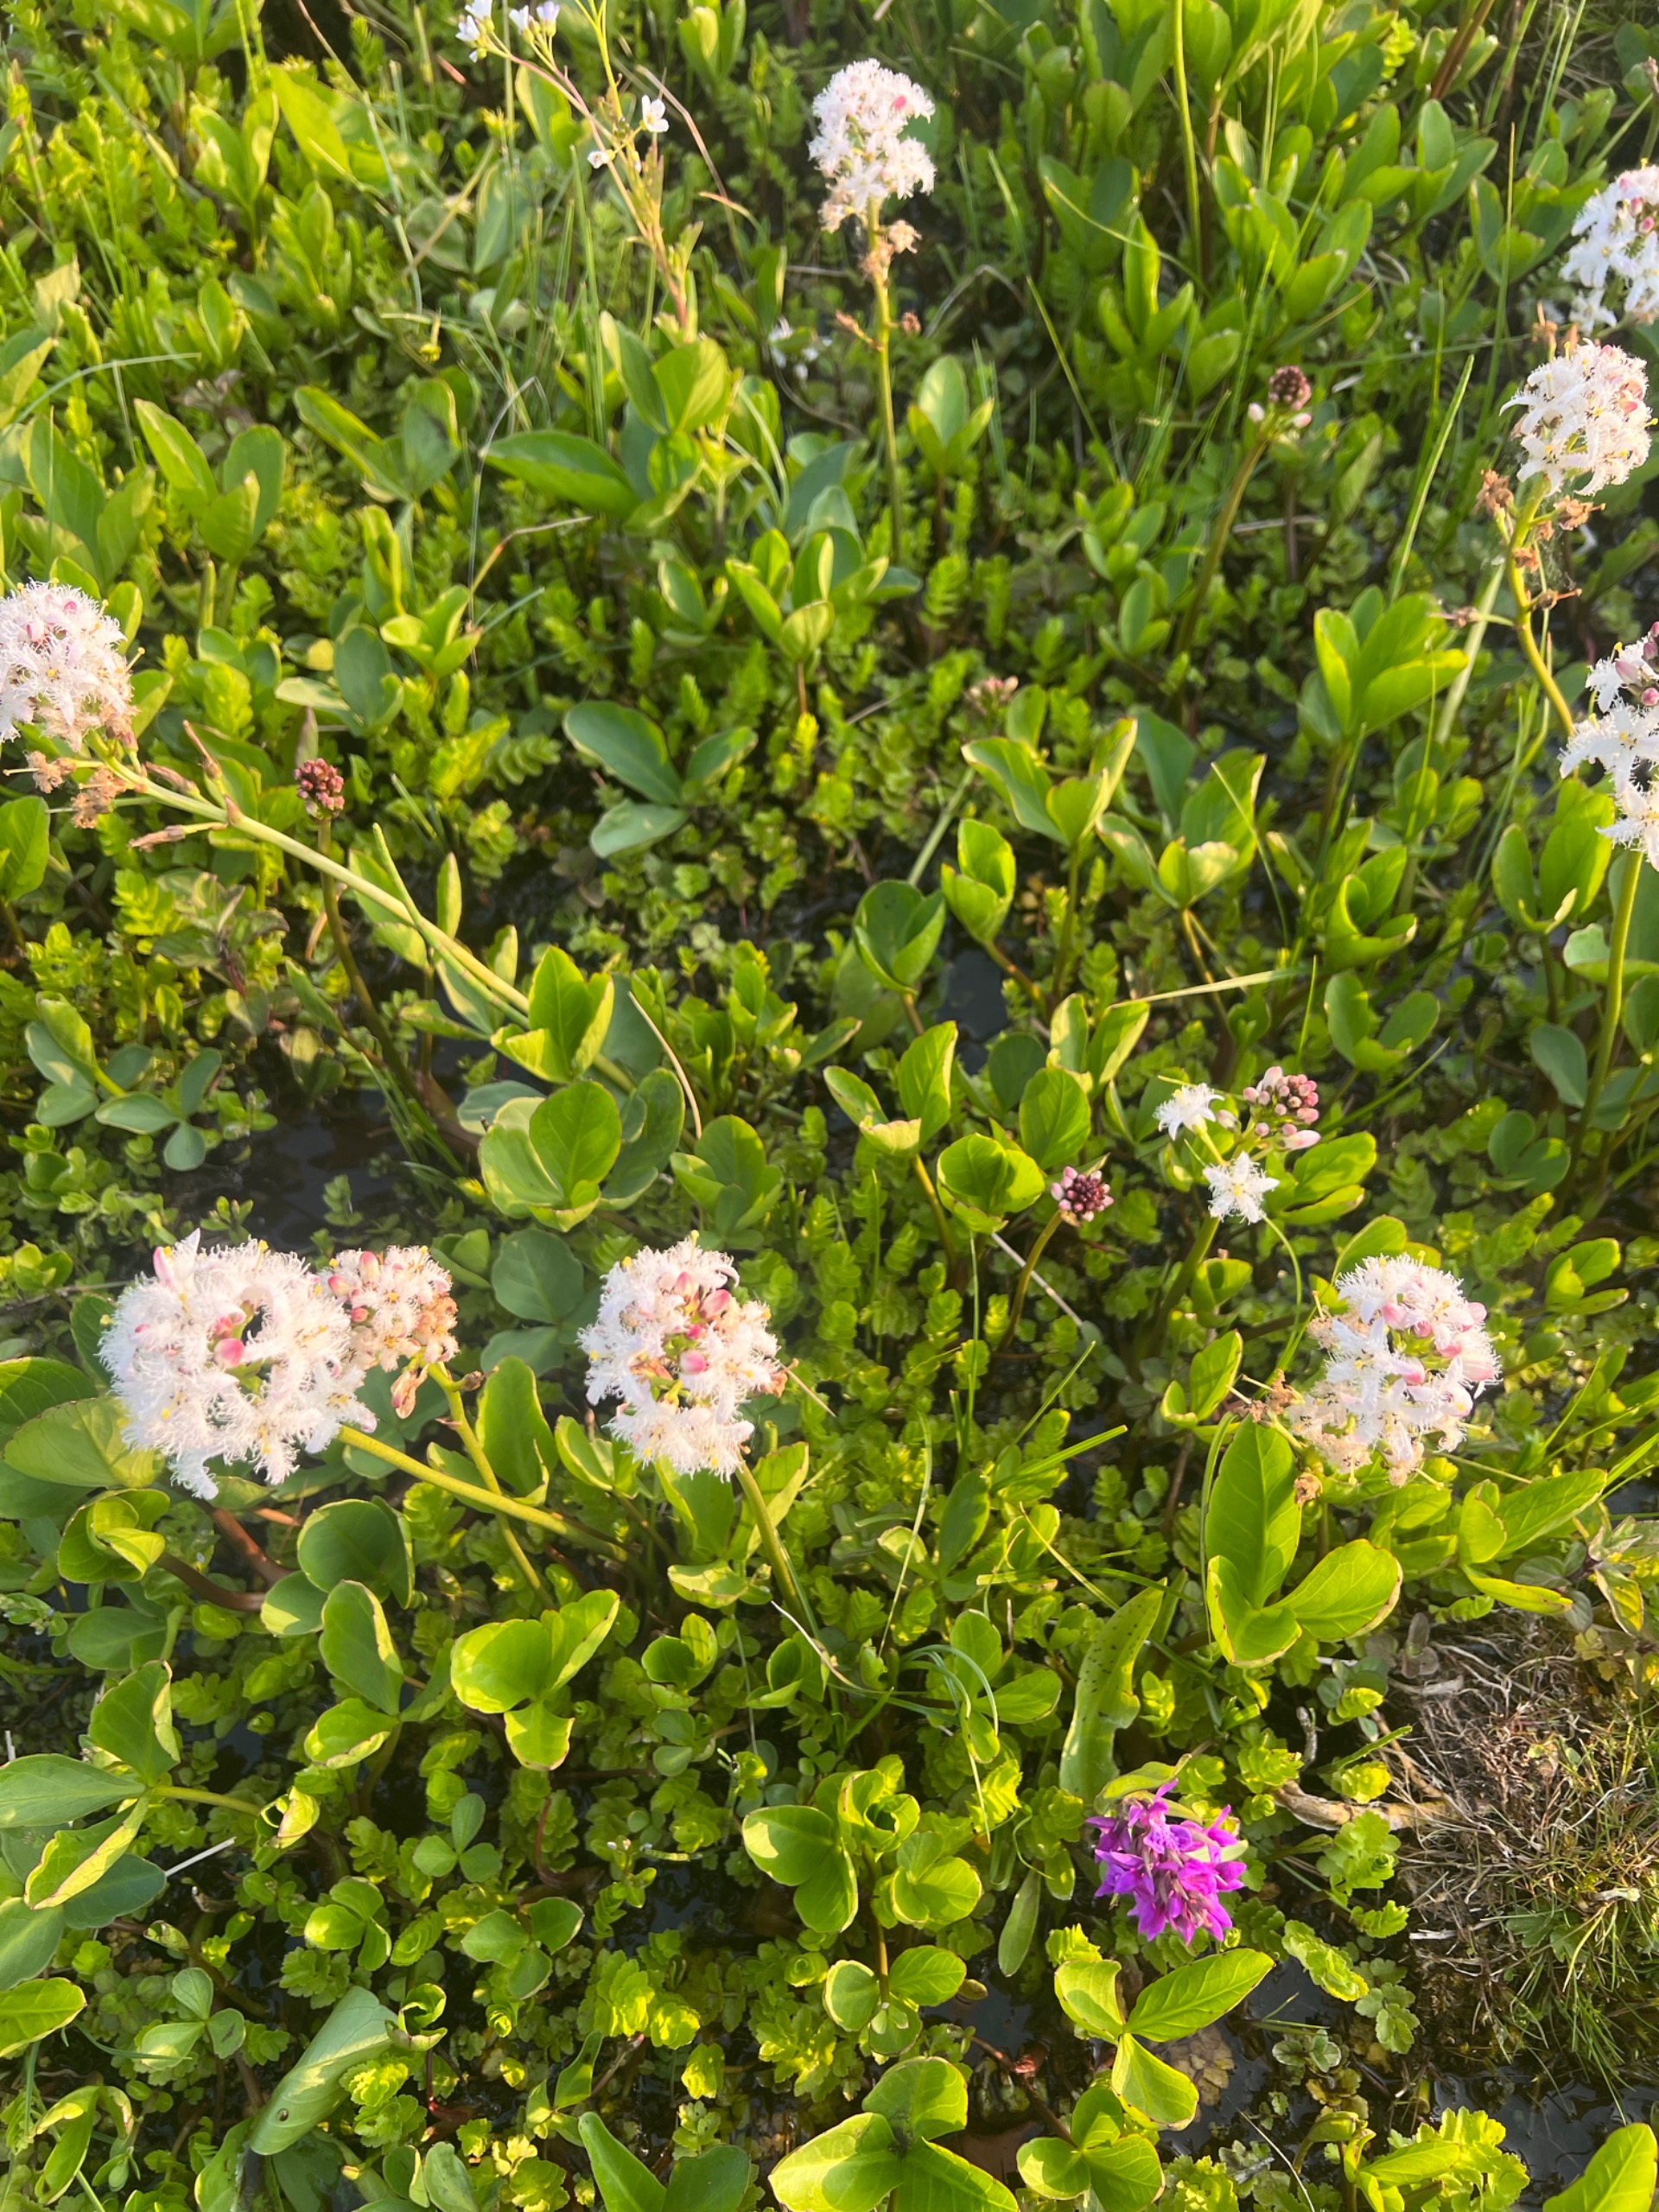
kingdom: Plantae
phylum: Tracheophyta
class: Magnoliopsida
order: Asterales
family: Menyanthaceae
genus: Menyanthes
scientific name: Menyanthes trifoliata
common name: Bukkeblad
